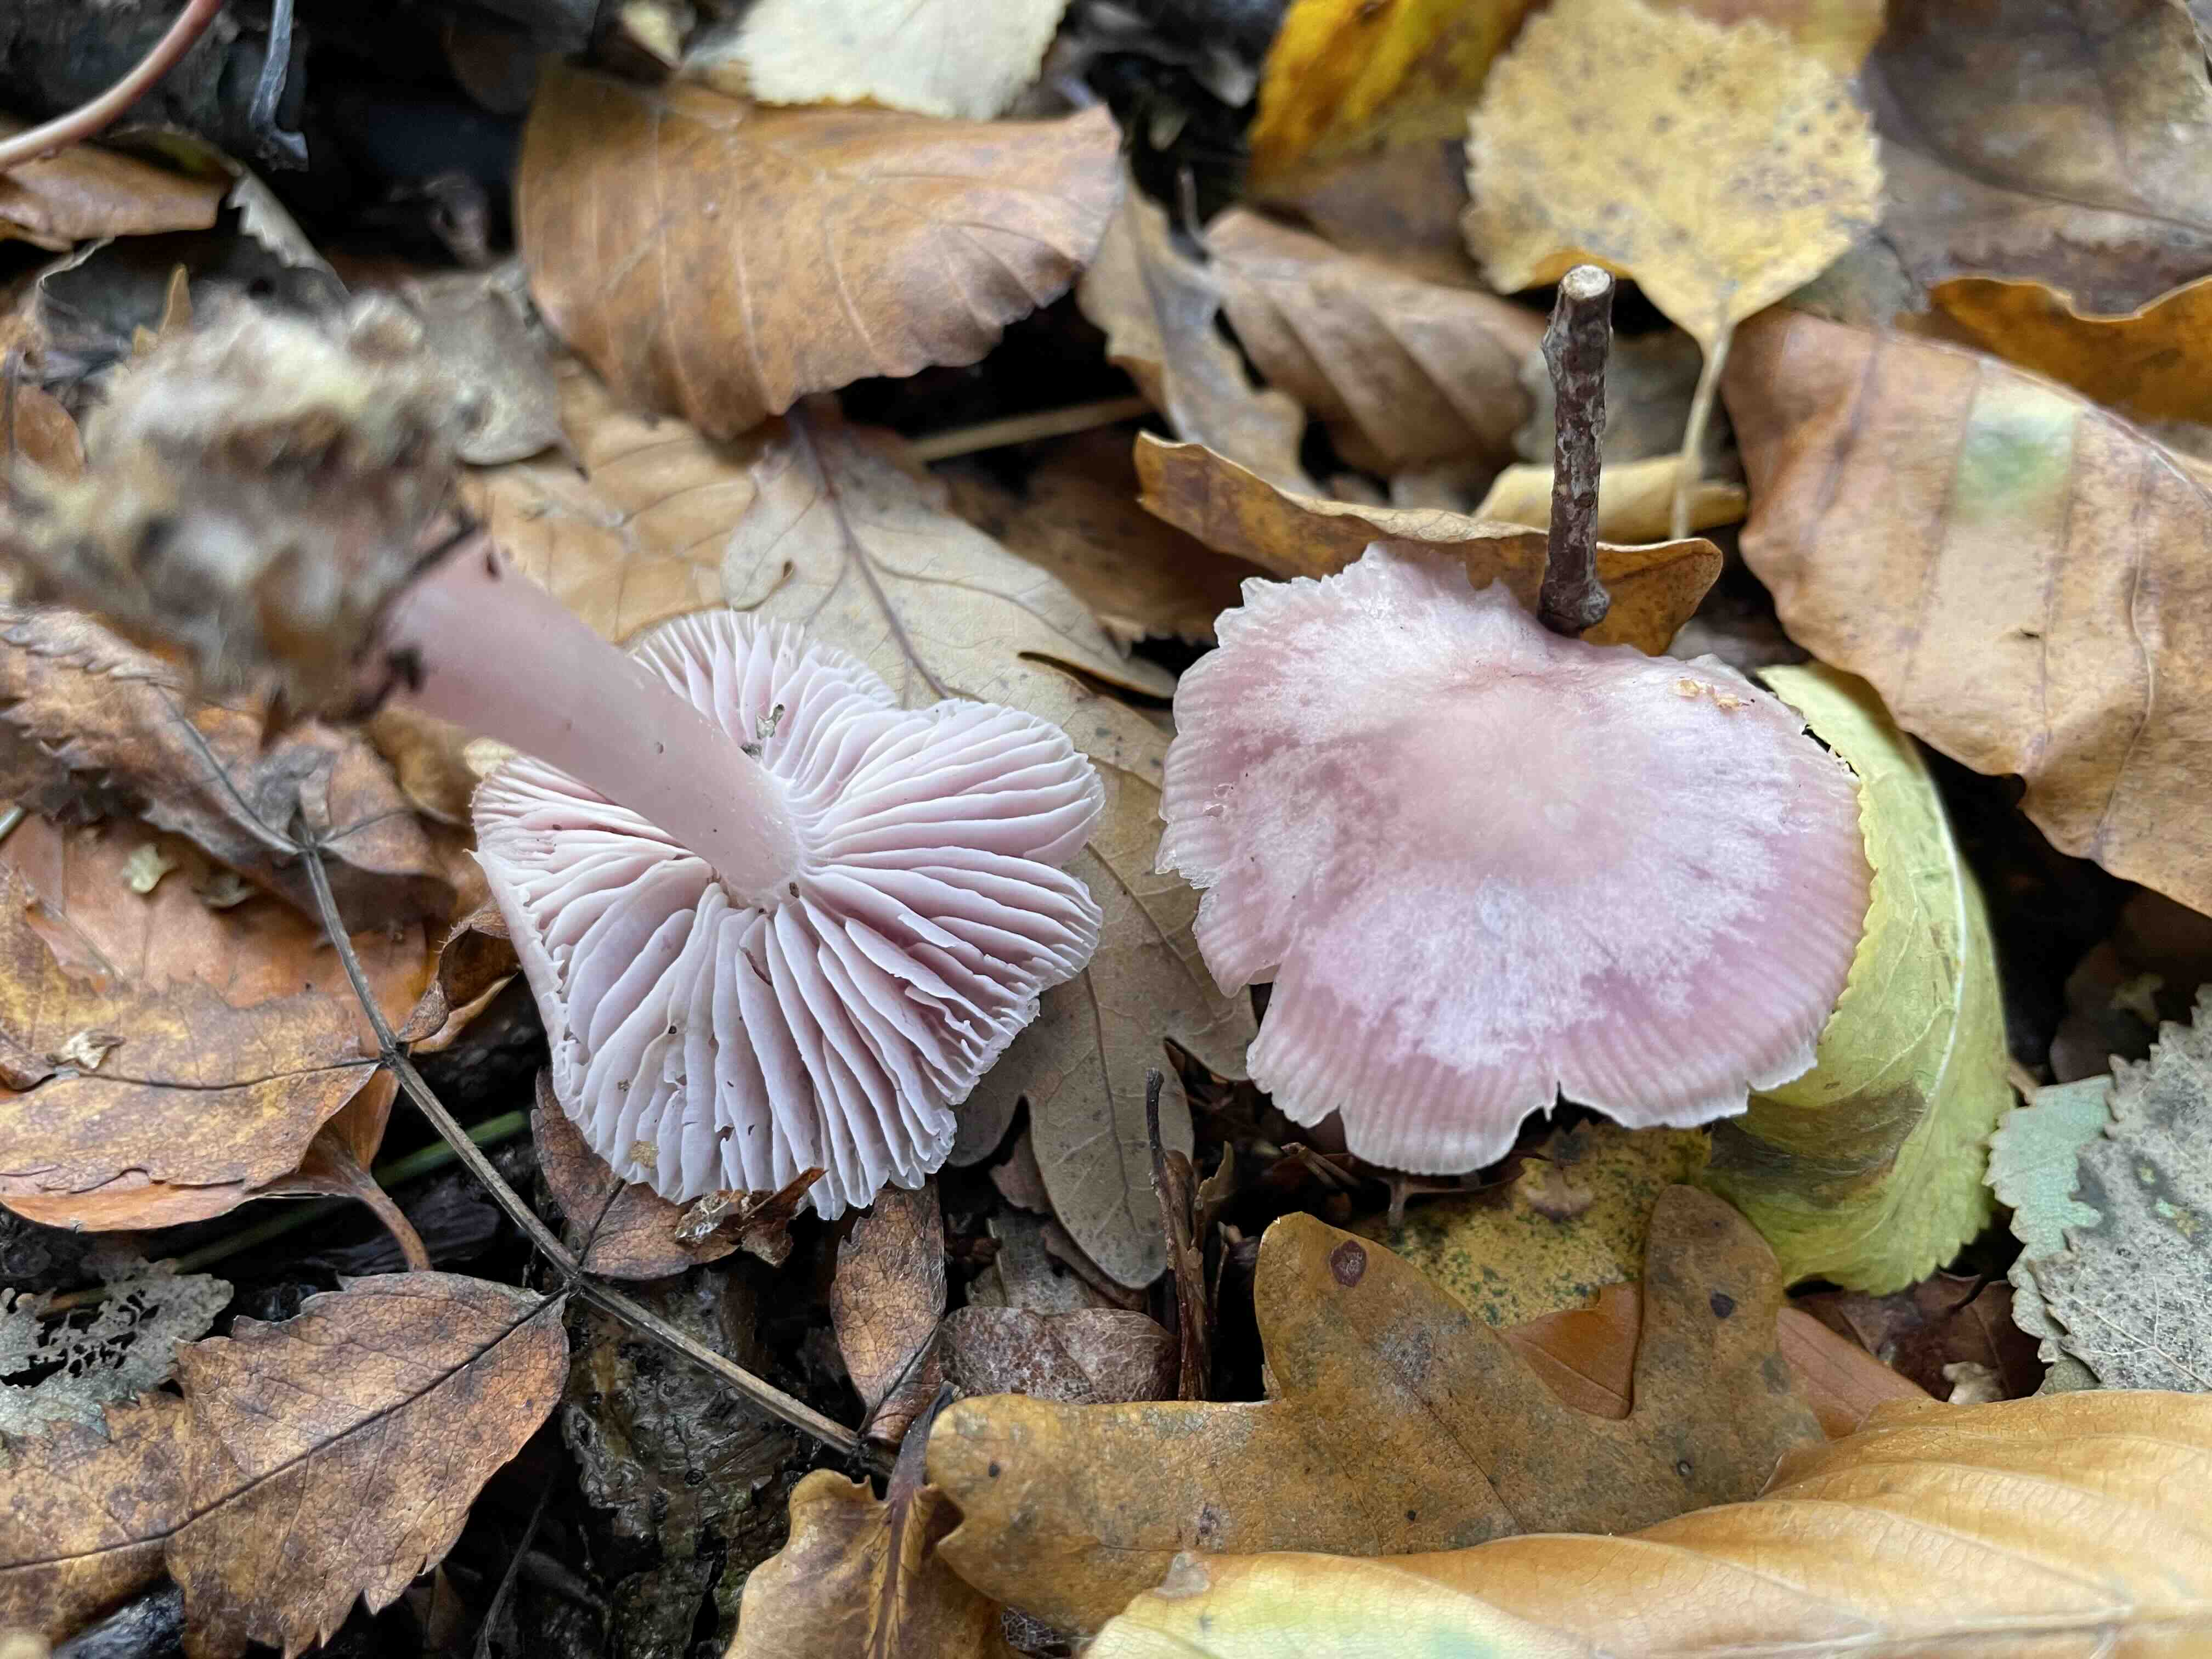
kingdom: Fungi
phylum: Basidiomycota
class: Agaricomycetes
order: Agaricales
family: Mycenaceae
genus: Mycena
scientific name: Mycena rosea
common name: rosa huesvamp
